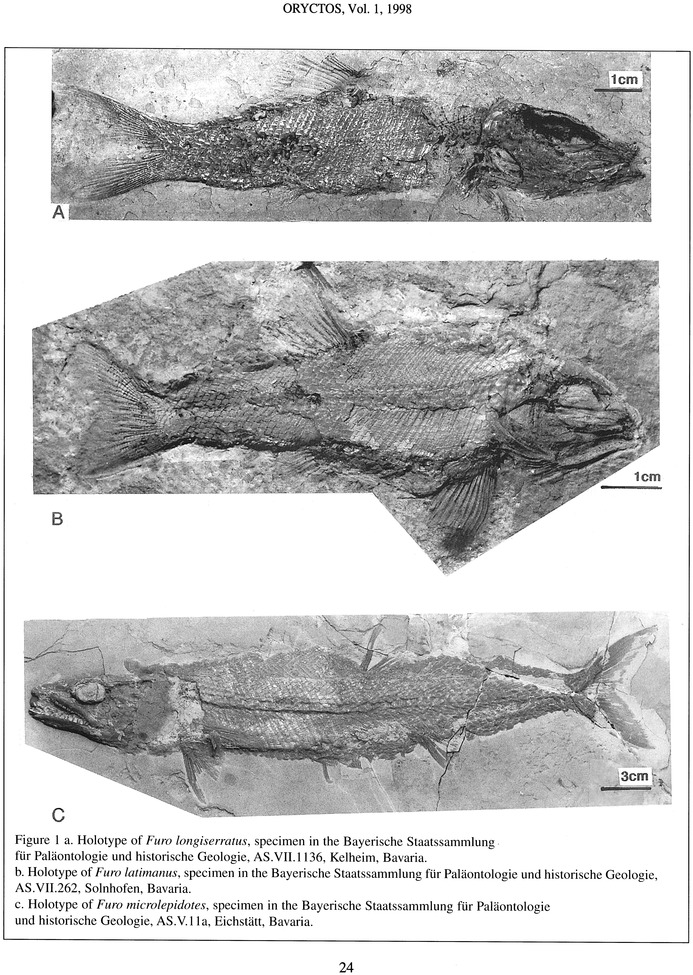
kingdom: Animalia
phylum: Chordata
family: Ophiopsiellidae
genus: Furo
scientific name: Furo longiserratus
